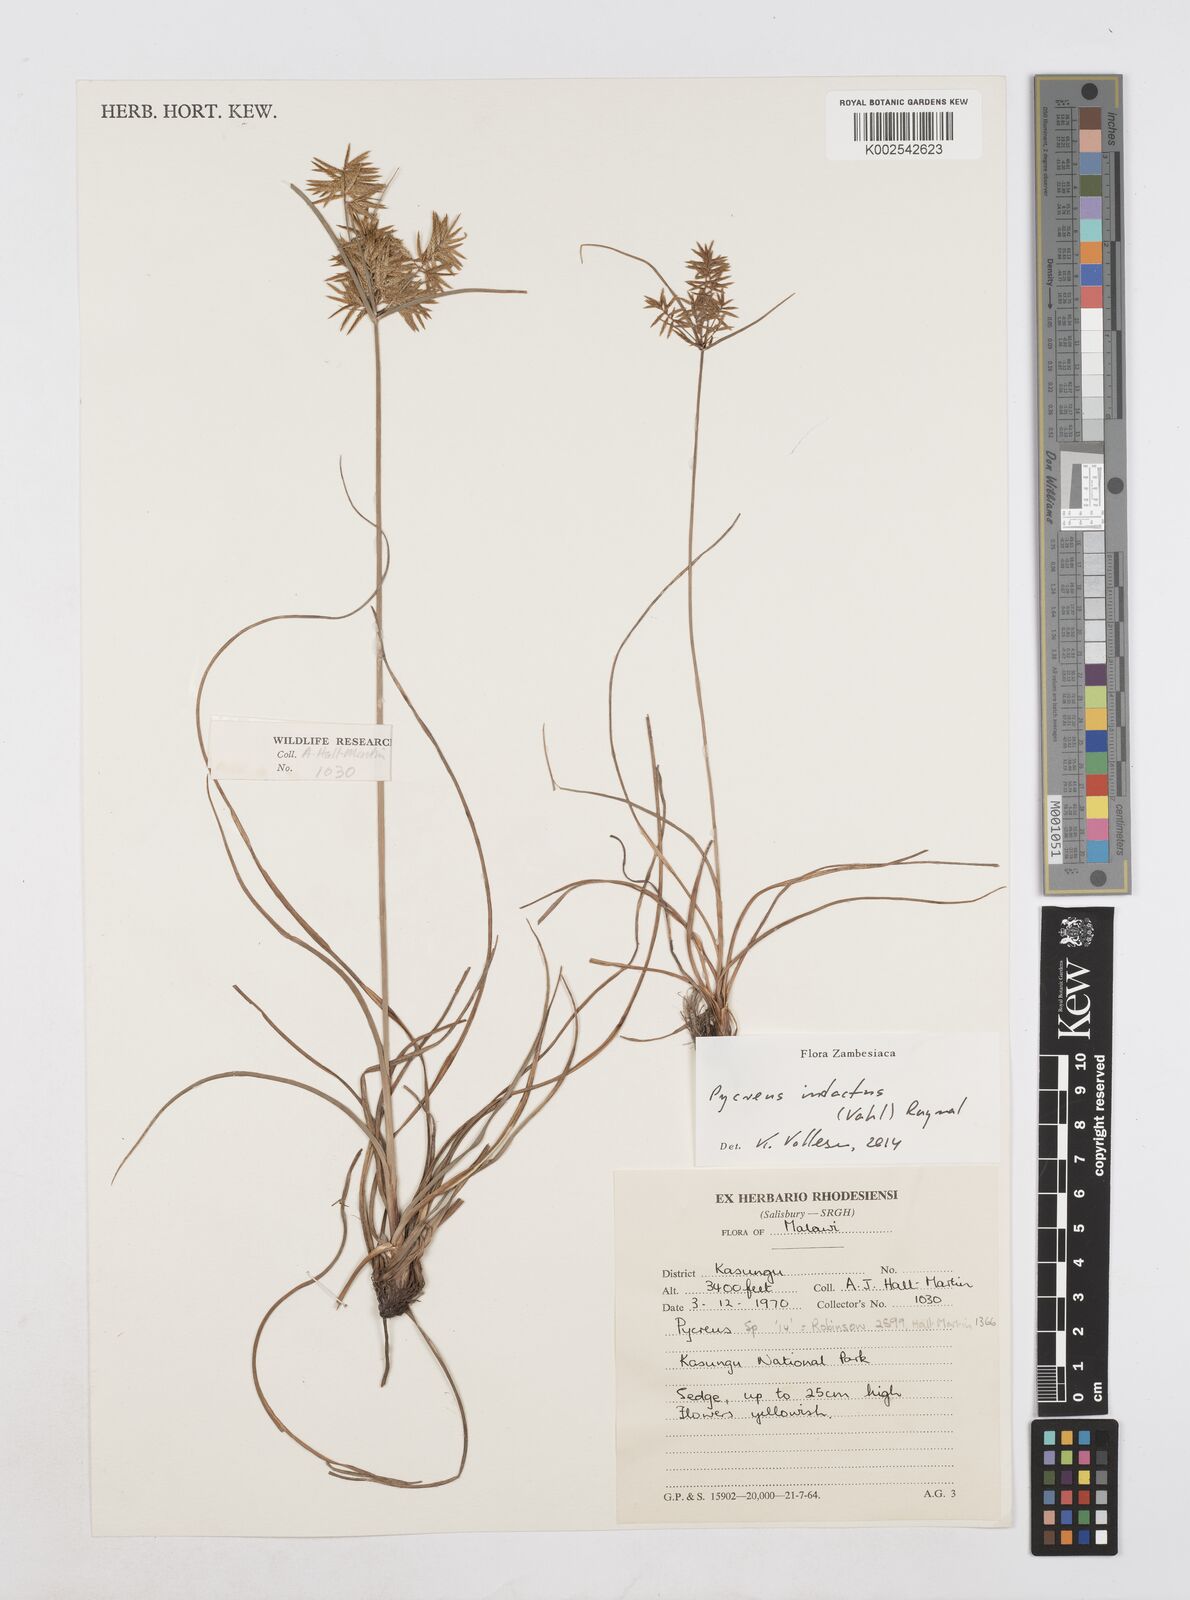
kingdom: Plantae
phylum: Tracheophyta
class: Liliopsida
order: Poales
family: Cyperaceae
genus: Cyperus
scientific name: Cyperus intactus
